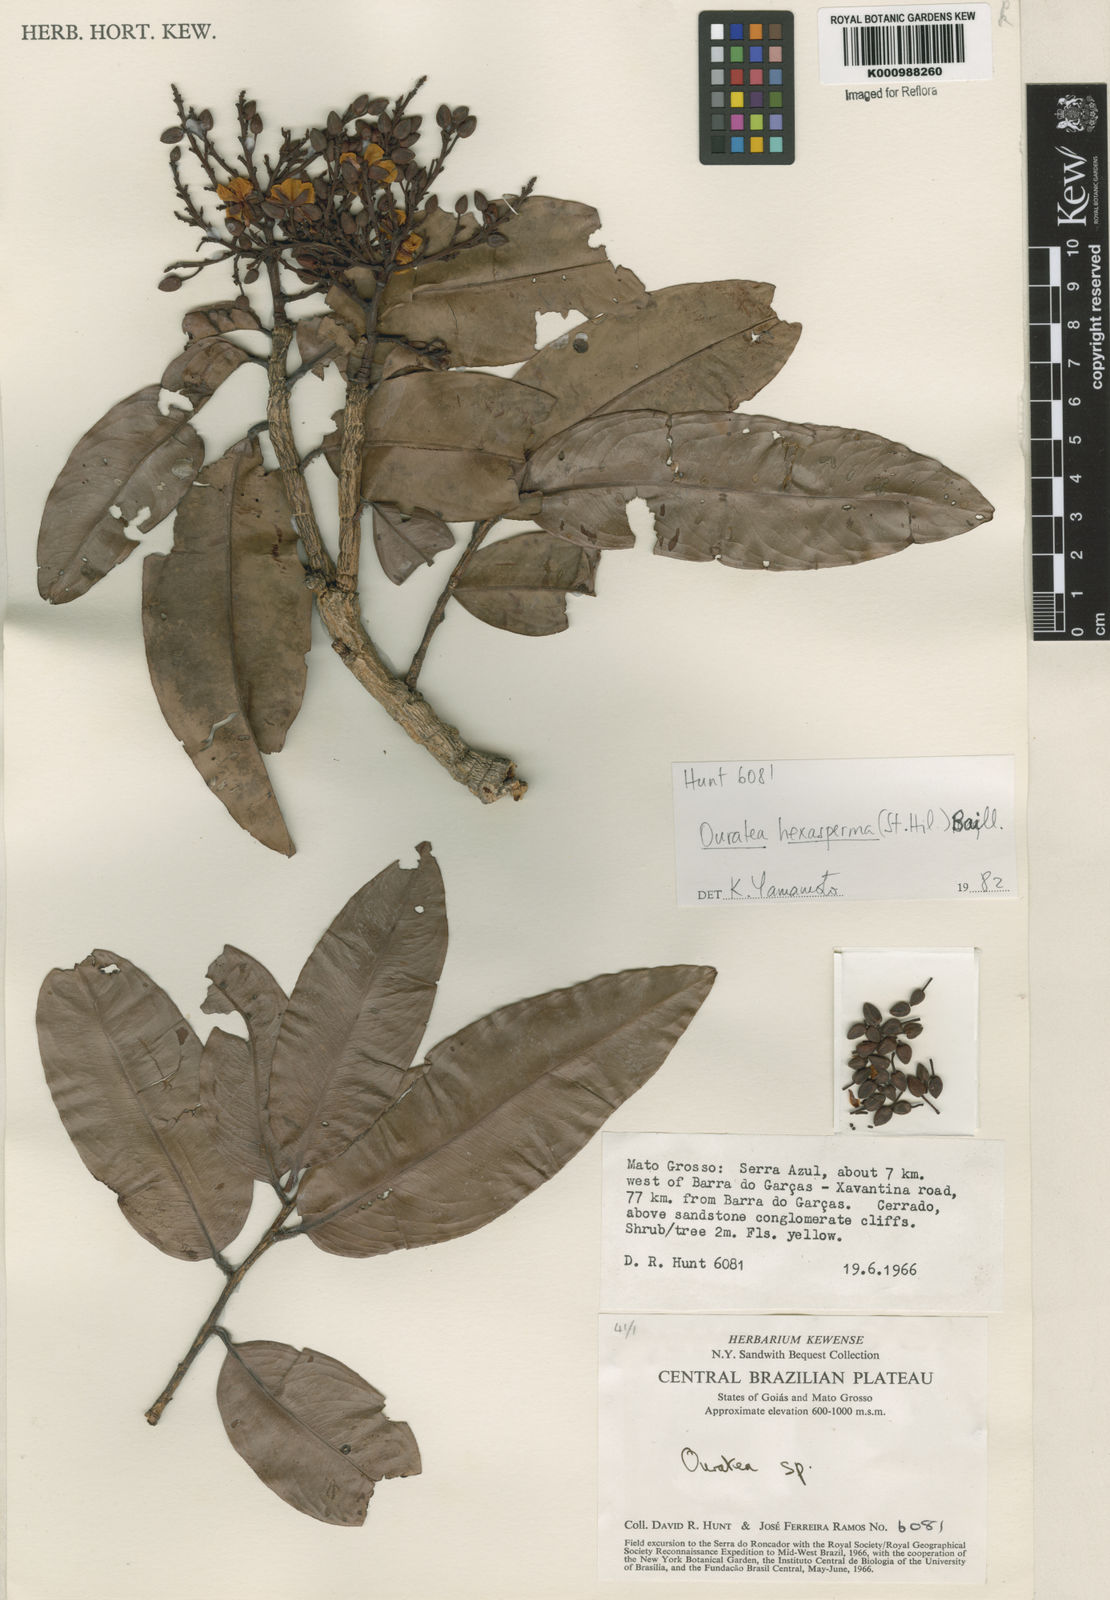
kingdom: Plantae
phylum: Tracheophyta
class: Magnoliopsida
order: Malpighiales
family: Ochnaceae
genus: Ouratea
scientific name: Ouratea hexasperma
